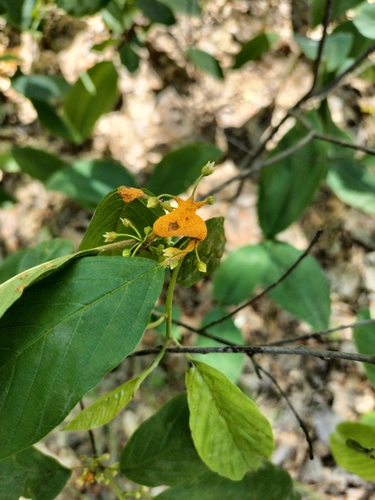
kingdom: Fungi
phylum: Basidiomycota
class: Pucciniomycetes
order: Pucciniales
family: Pucciniaceae
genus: Puccinia
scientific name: Puccinia coronata
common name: Crown rust
